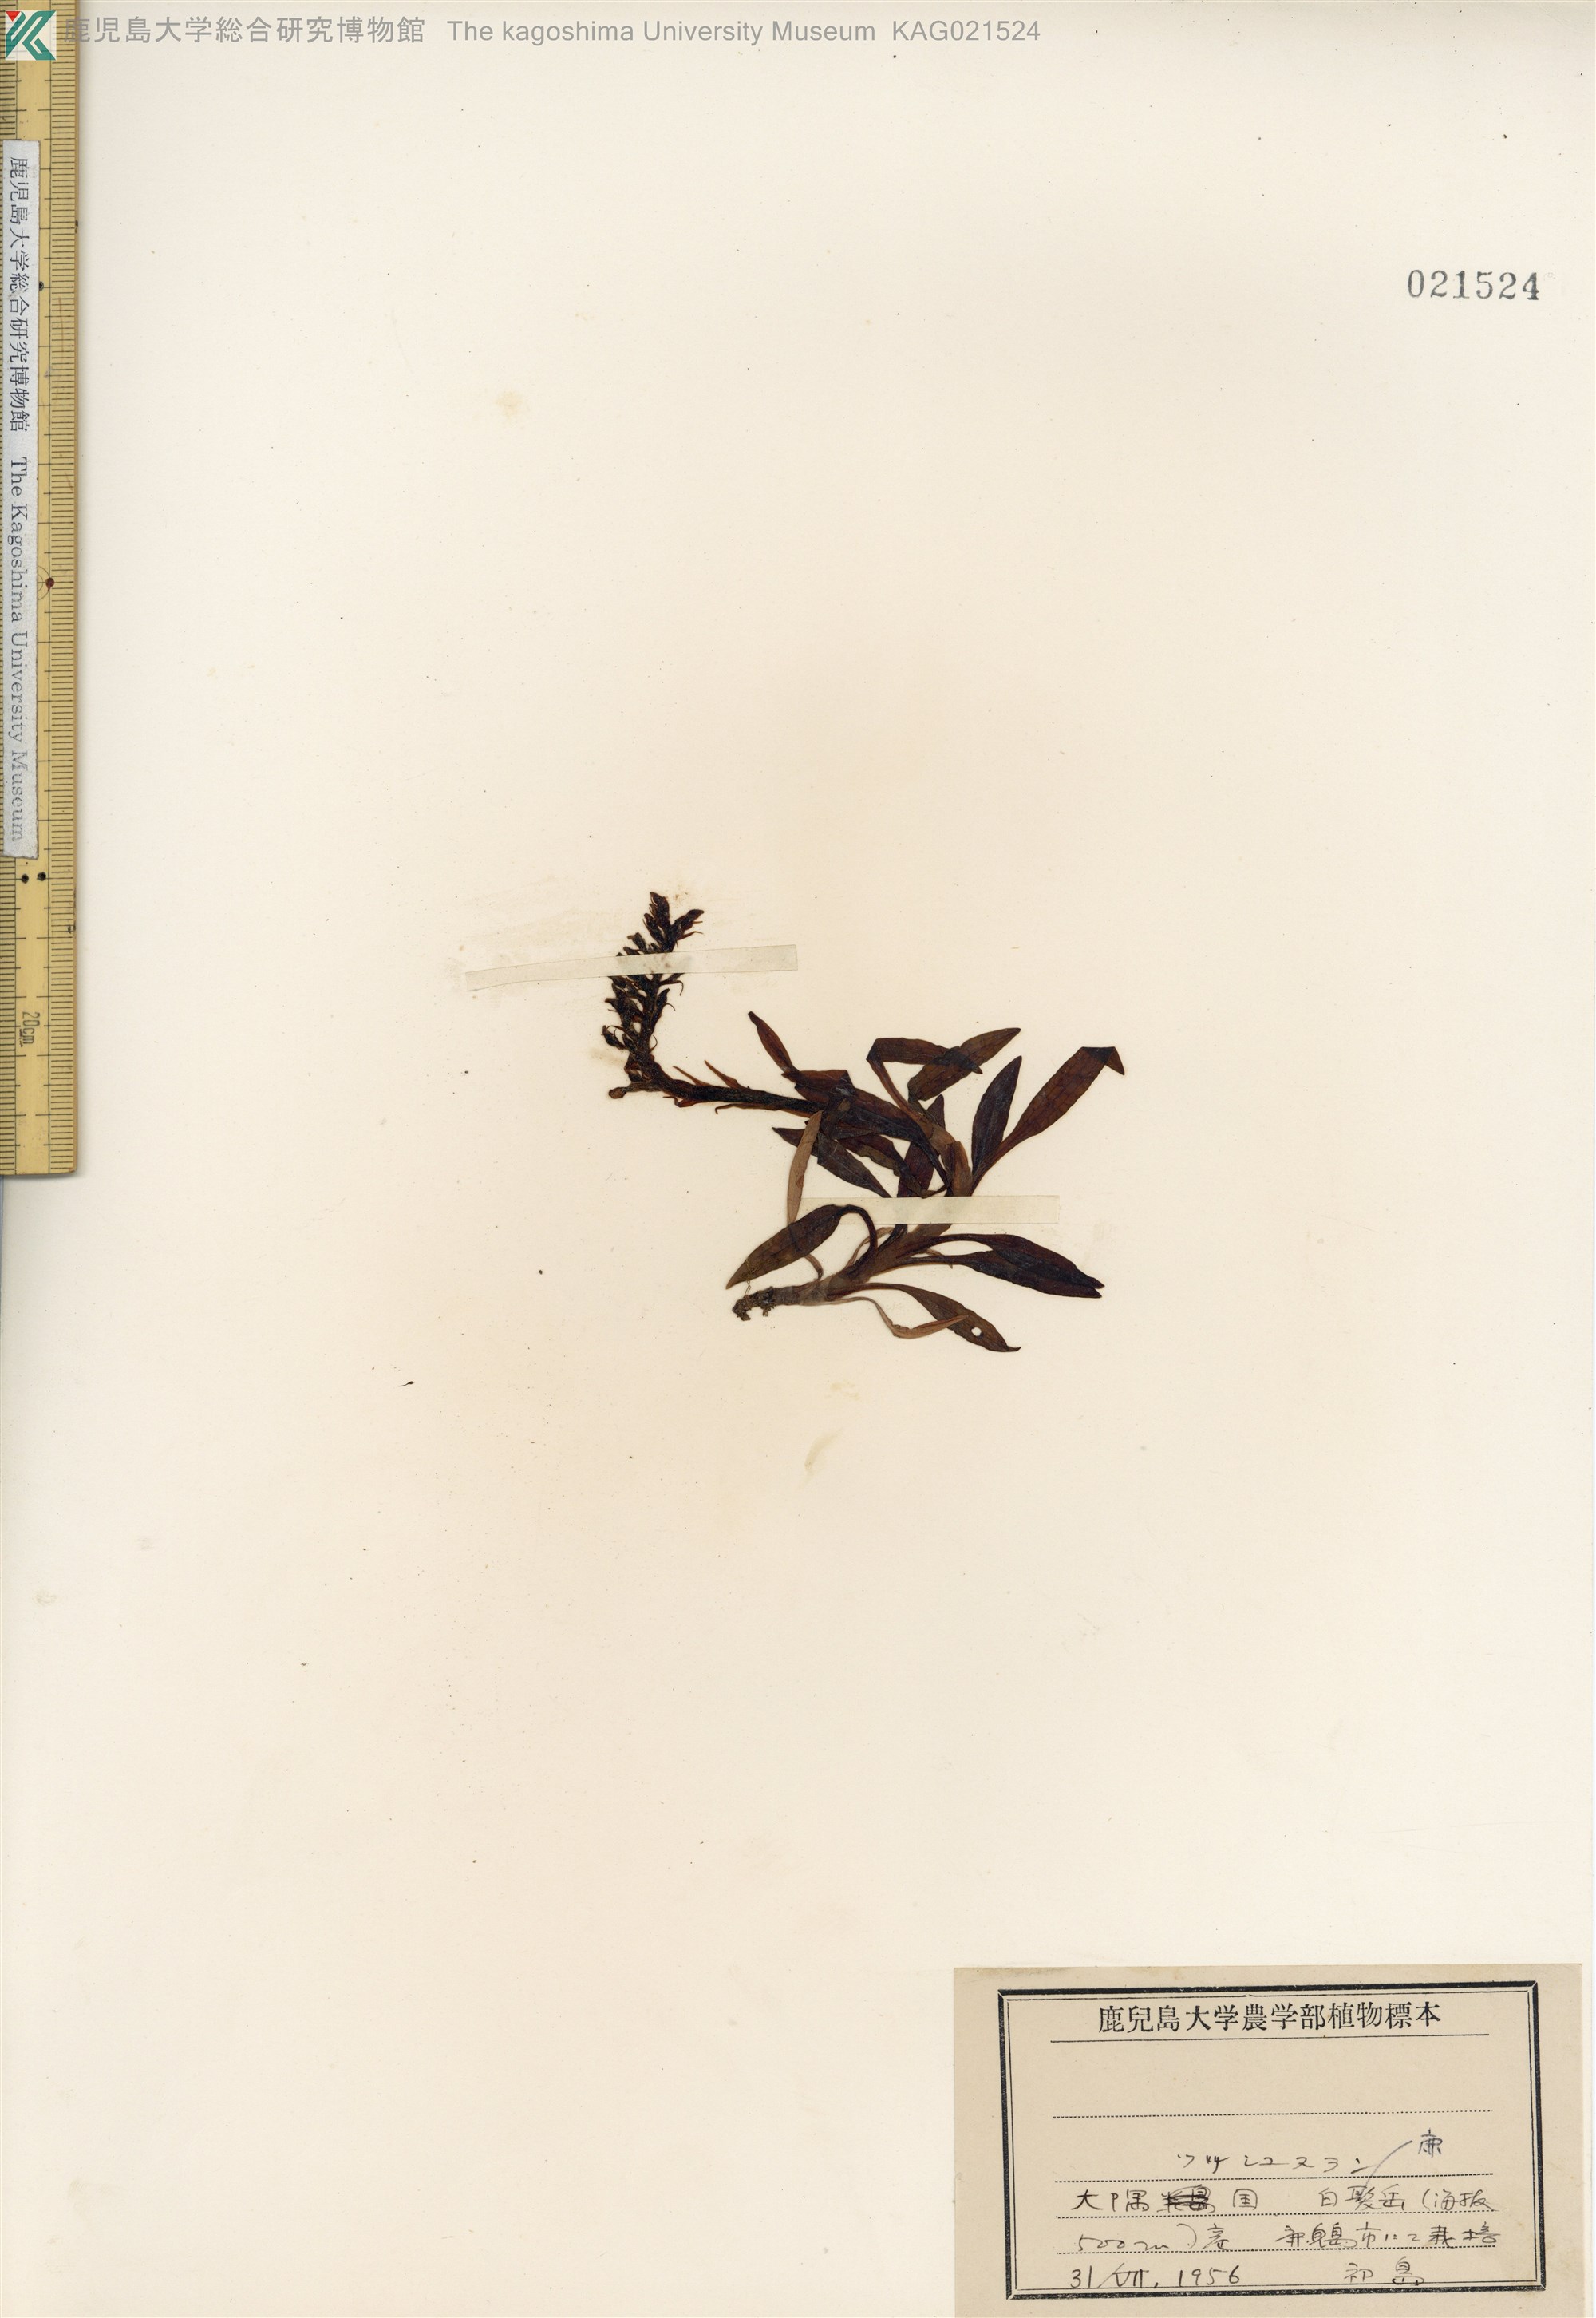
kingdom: Plantae
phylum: Tracheophyta
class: Liliopsida
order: Asparagales
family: Orchidaceae
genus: Goodyera
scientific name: Goodyera pendula
